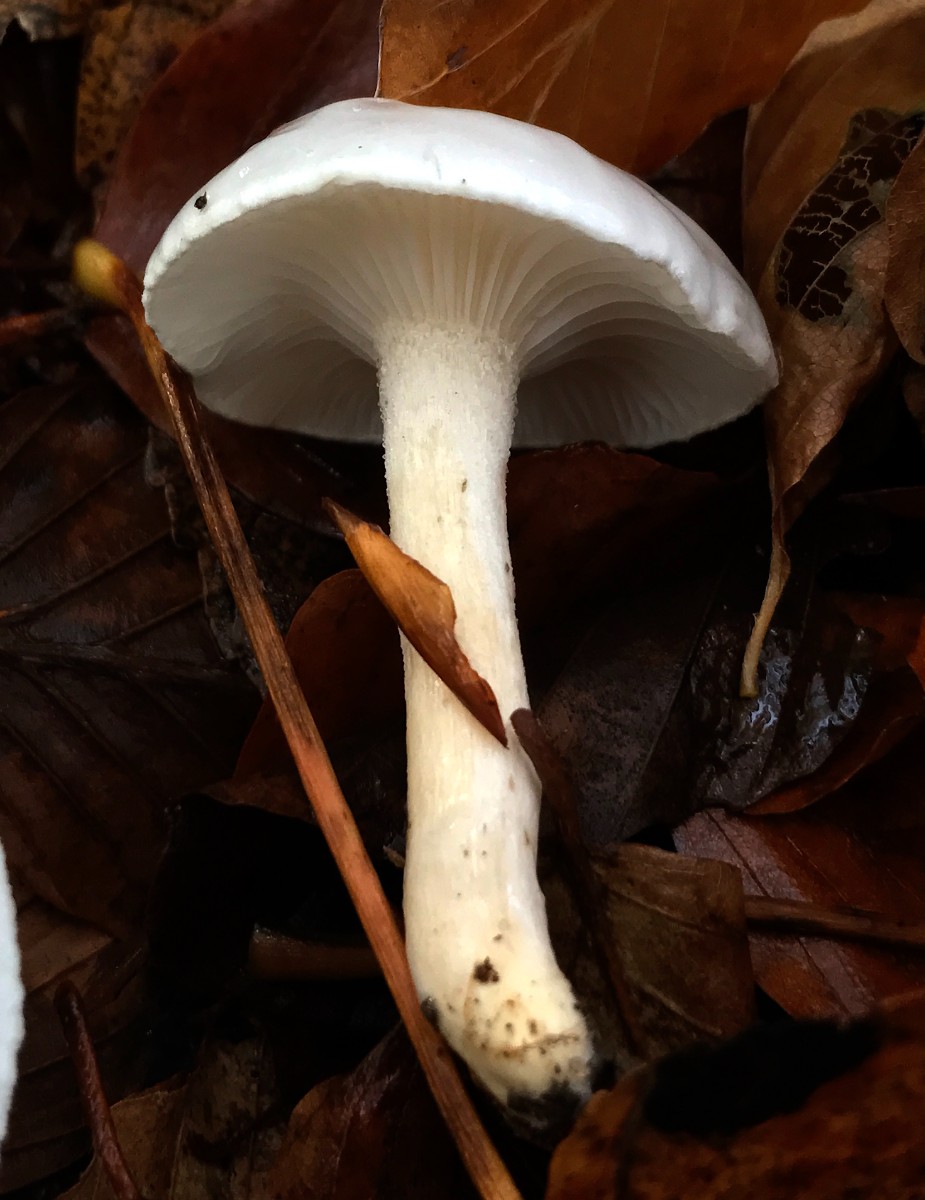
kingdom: Fungi
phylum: Basidiomycota
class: Agaricomycetes
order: Agaricales
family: Hygrophoraceae
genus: Hygrophorus
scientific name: Hygrophorus eburneus
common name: elfenbens-sneglehat
